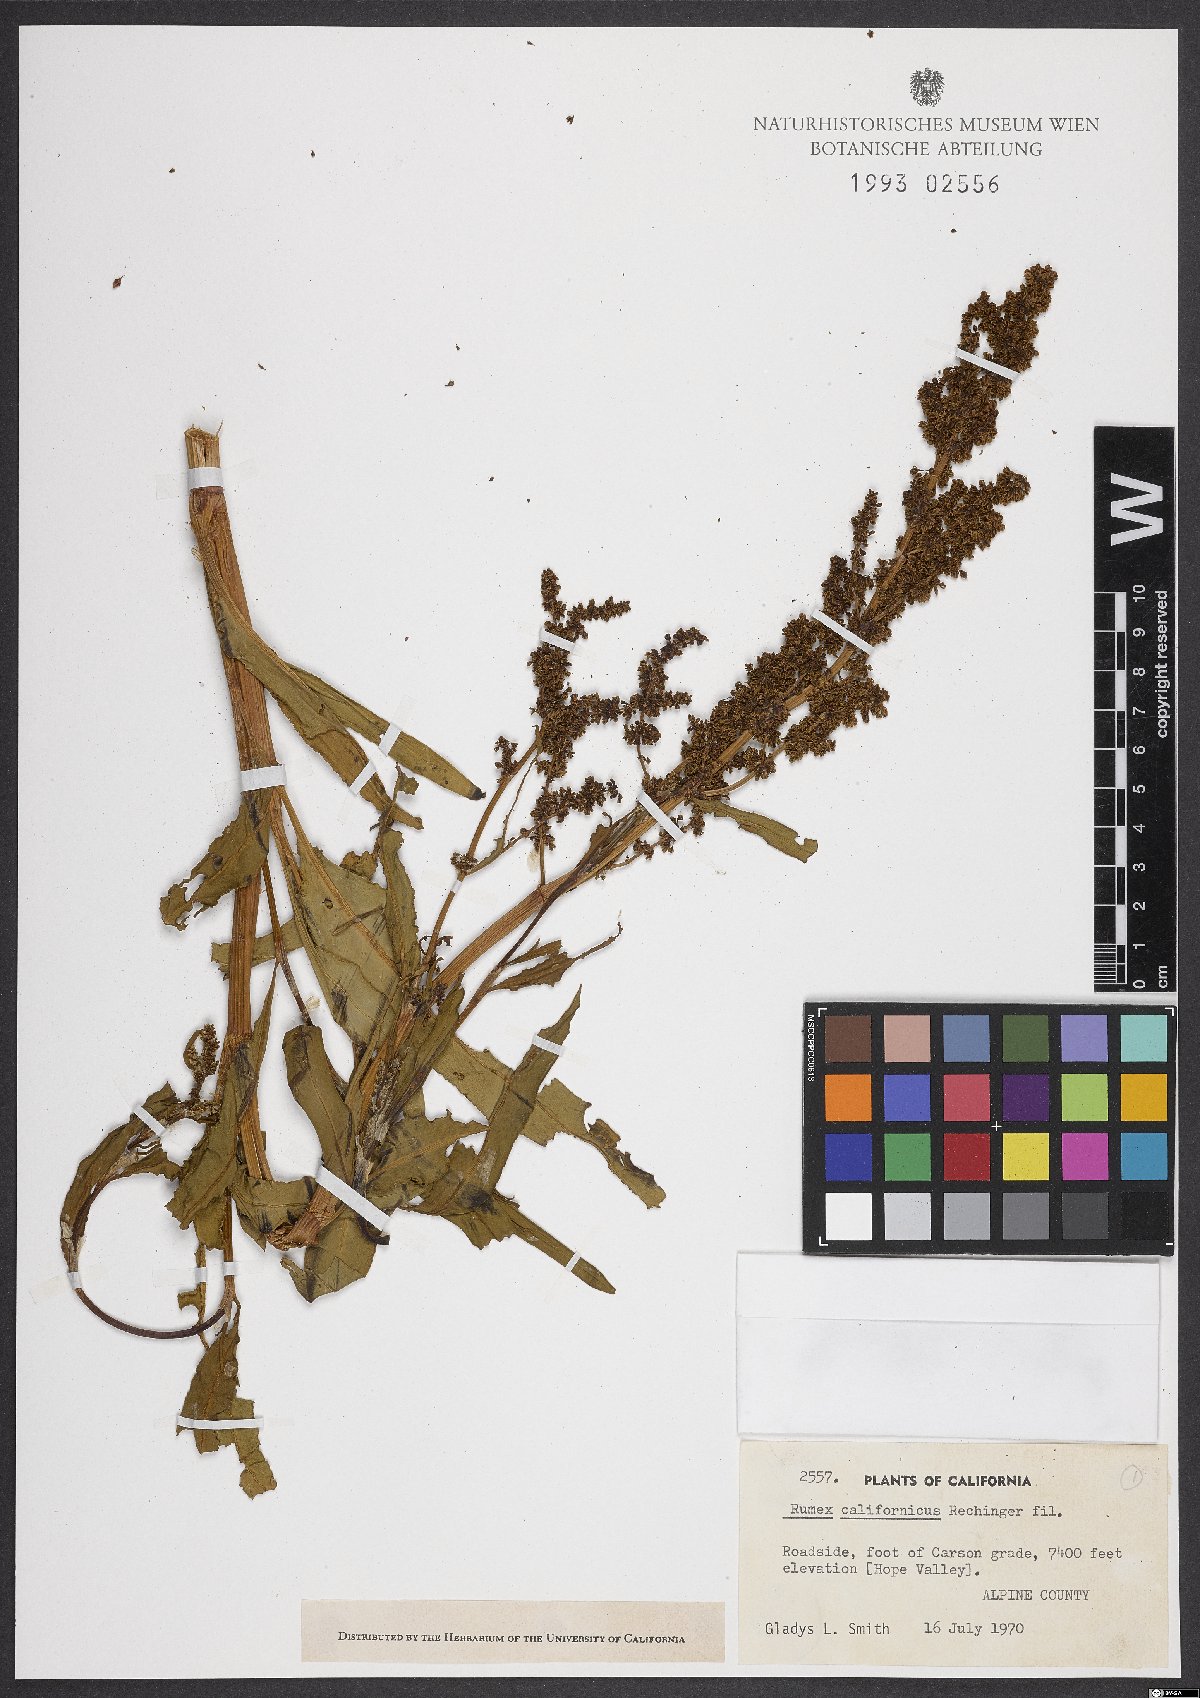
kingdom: Plantae
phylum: Tracheophyta
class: Magnoliopsida
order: Caryophyllales
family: Polygonaceae
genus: Rumex
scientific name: Rumex californicus
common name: California willow dock
